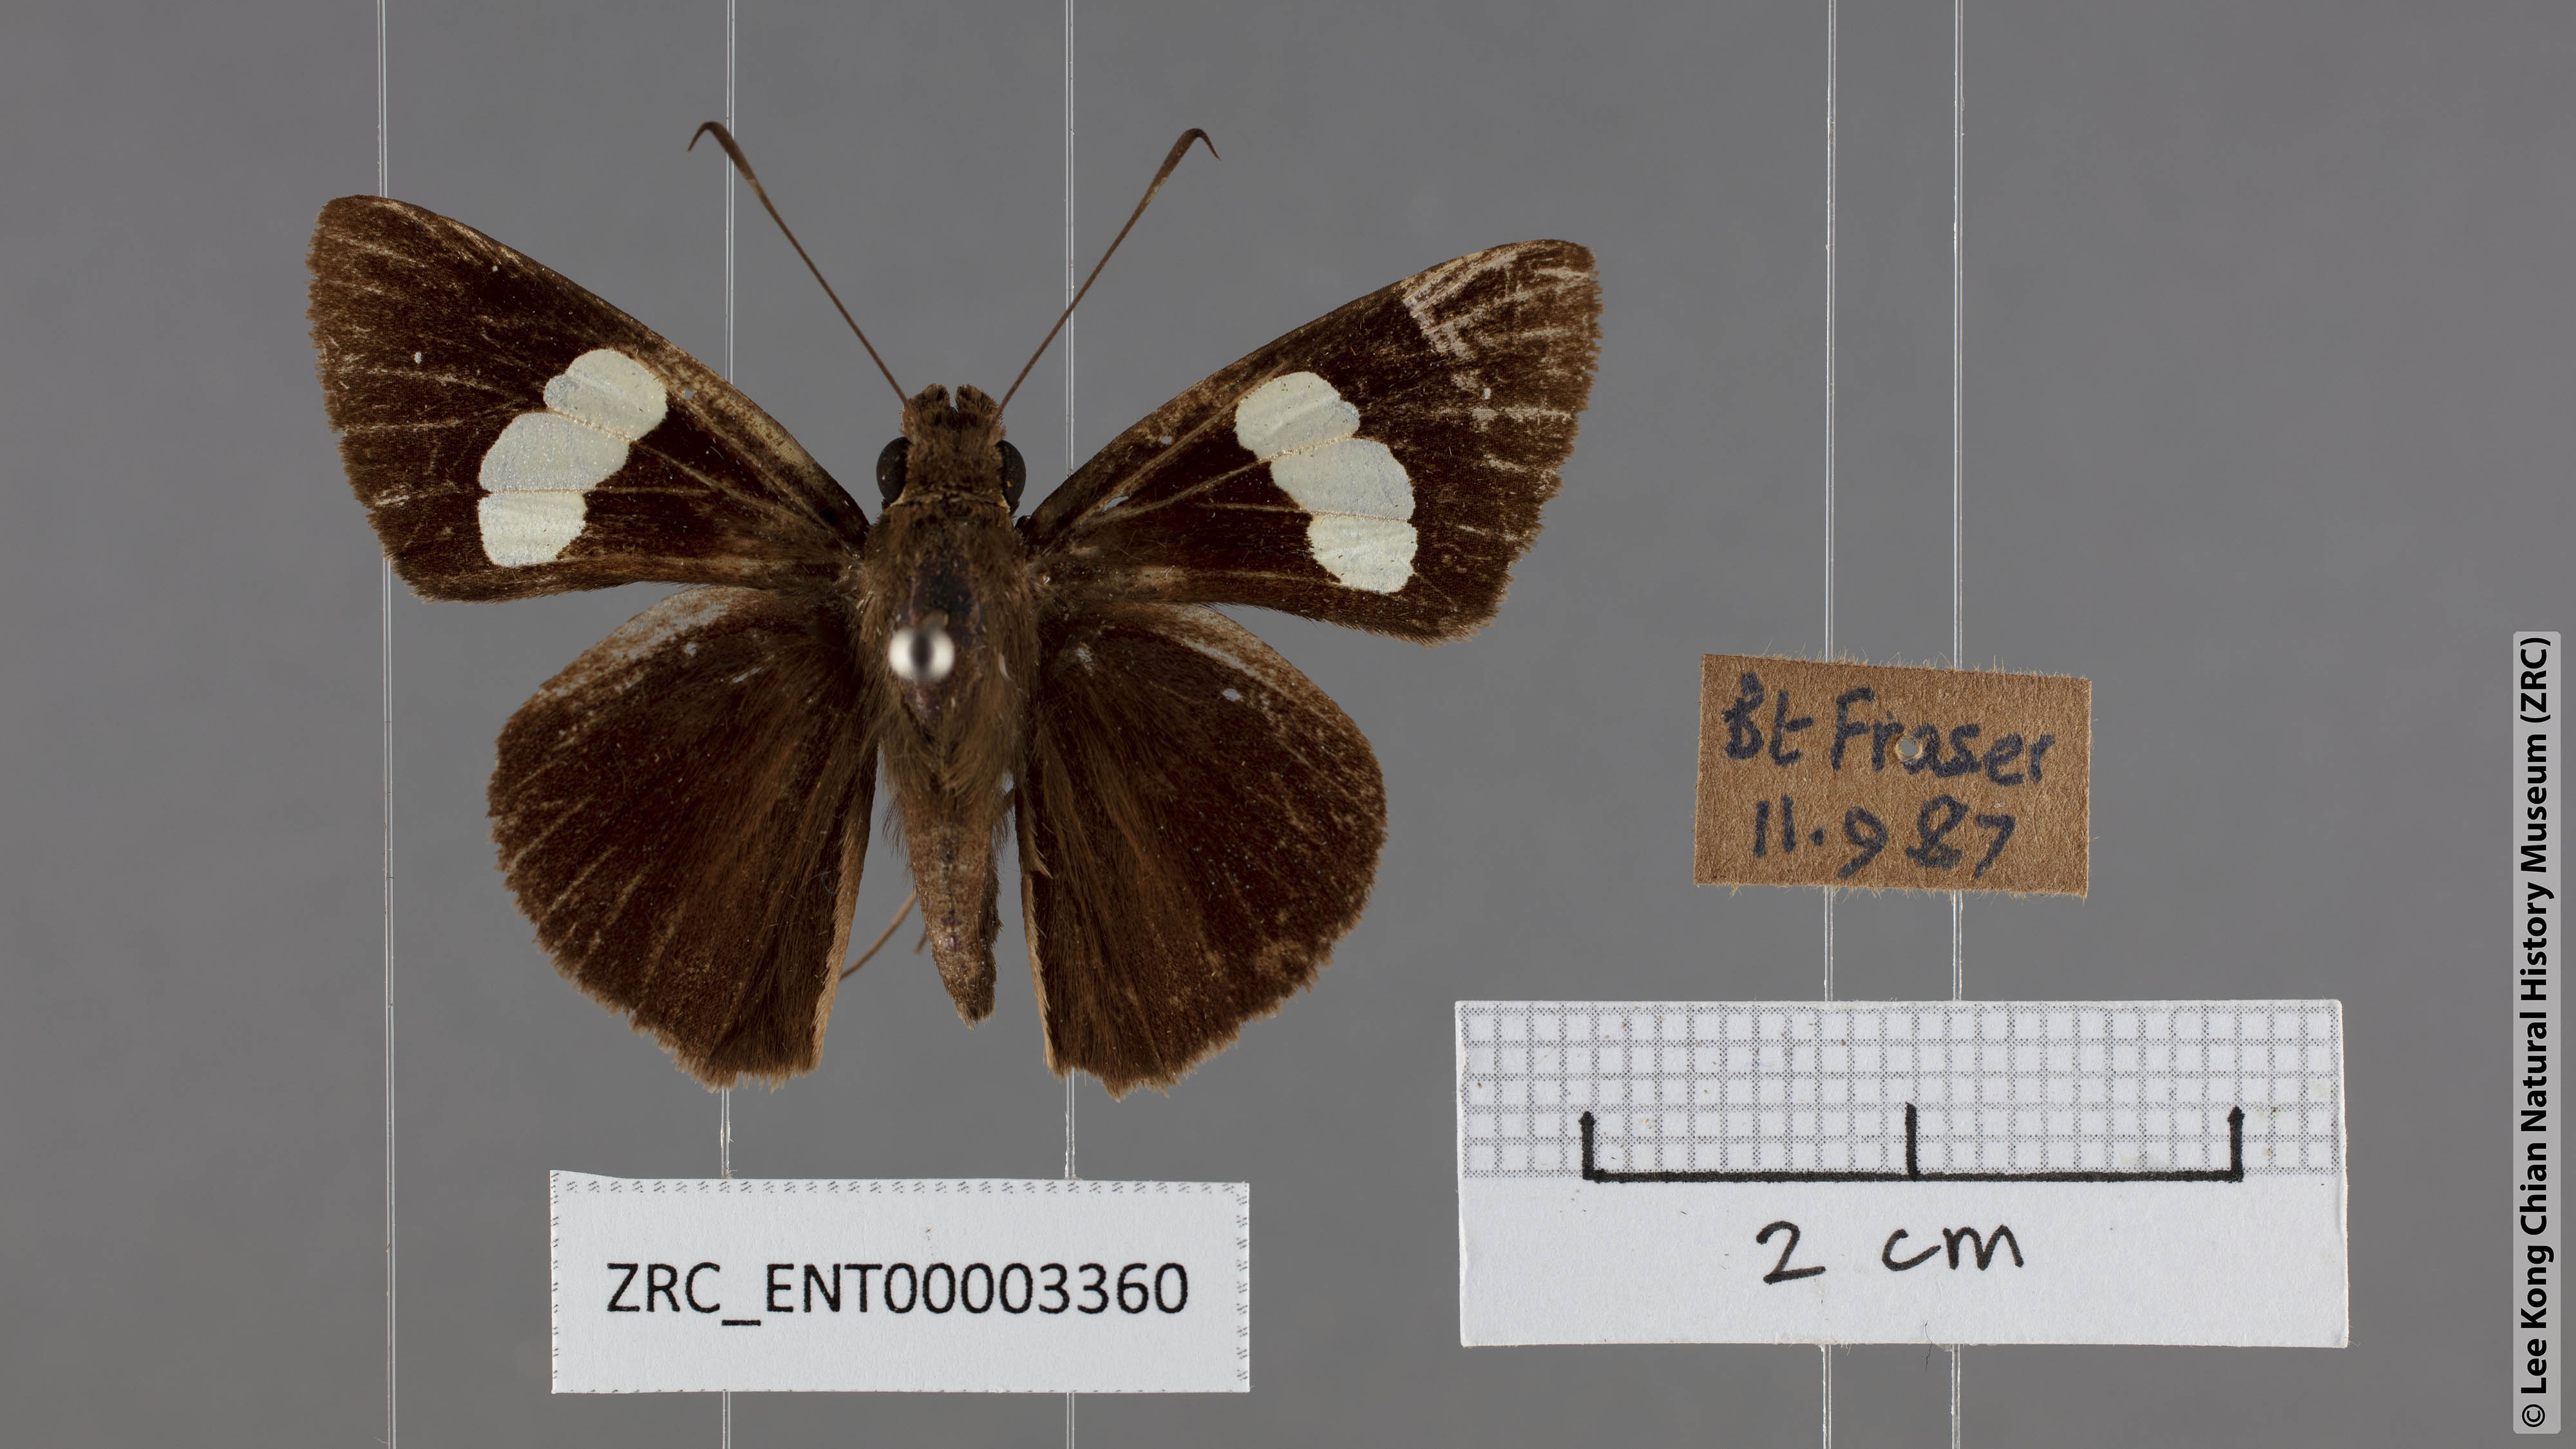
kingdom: Animalia
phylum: Arthropoda
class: Insecta
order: Lepidoptera
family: Hesperiidae
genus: Notocrypta
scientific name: Notocrypta paralysos
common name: Common banded demon
